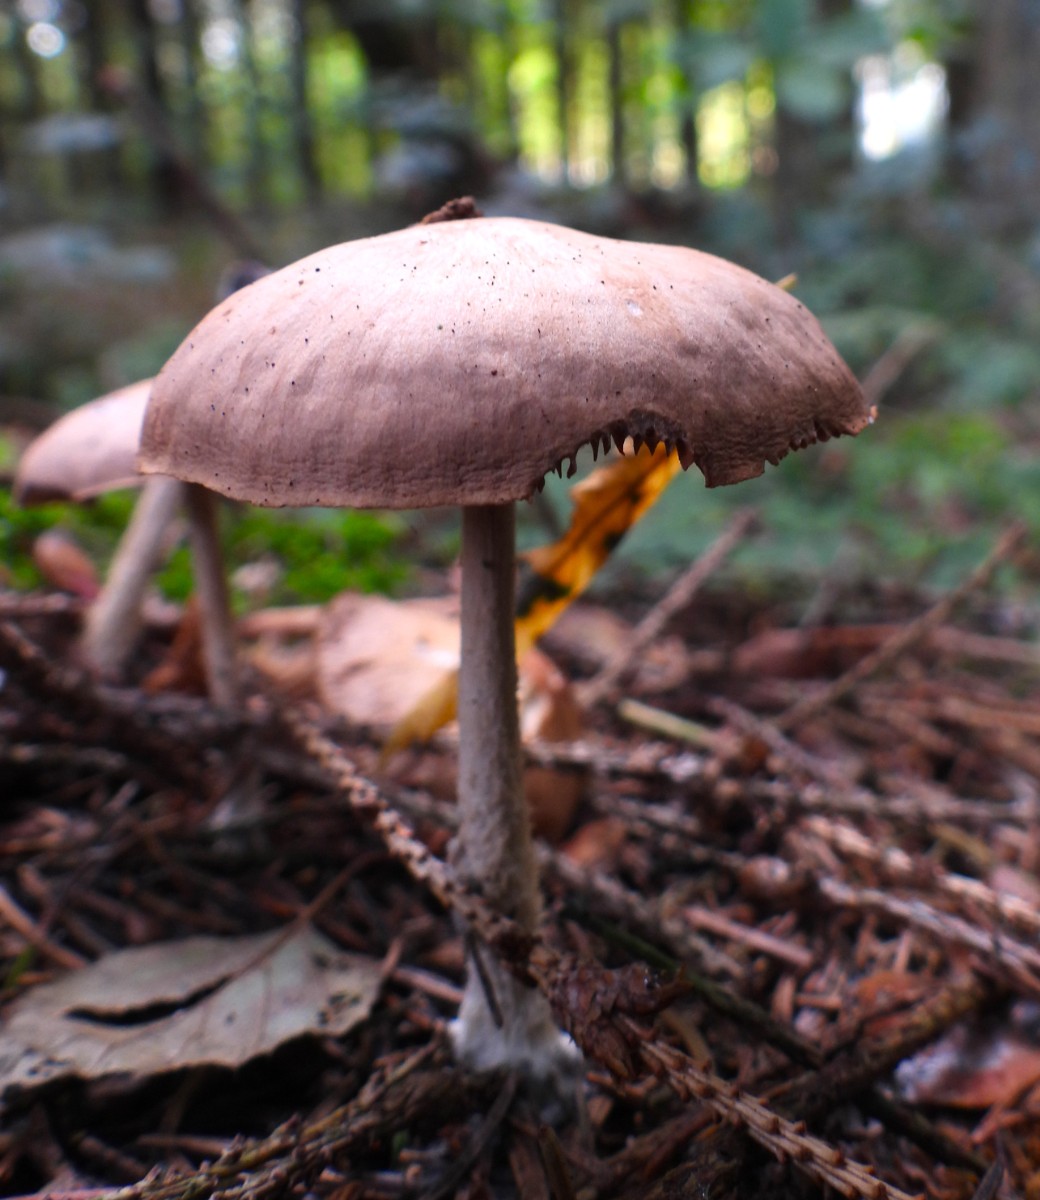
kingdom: Fungi
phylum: Basidiomycota
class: Agaricomycetes
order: Agaricales
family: Omphalotaceae
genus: Collybiopsis
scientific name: Collybiopsis peronata
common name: bestøvlet fladhat
